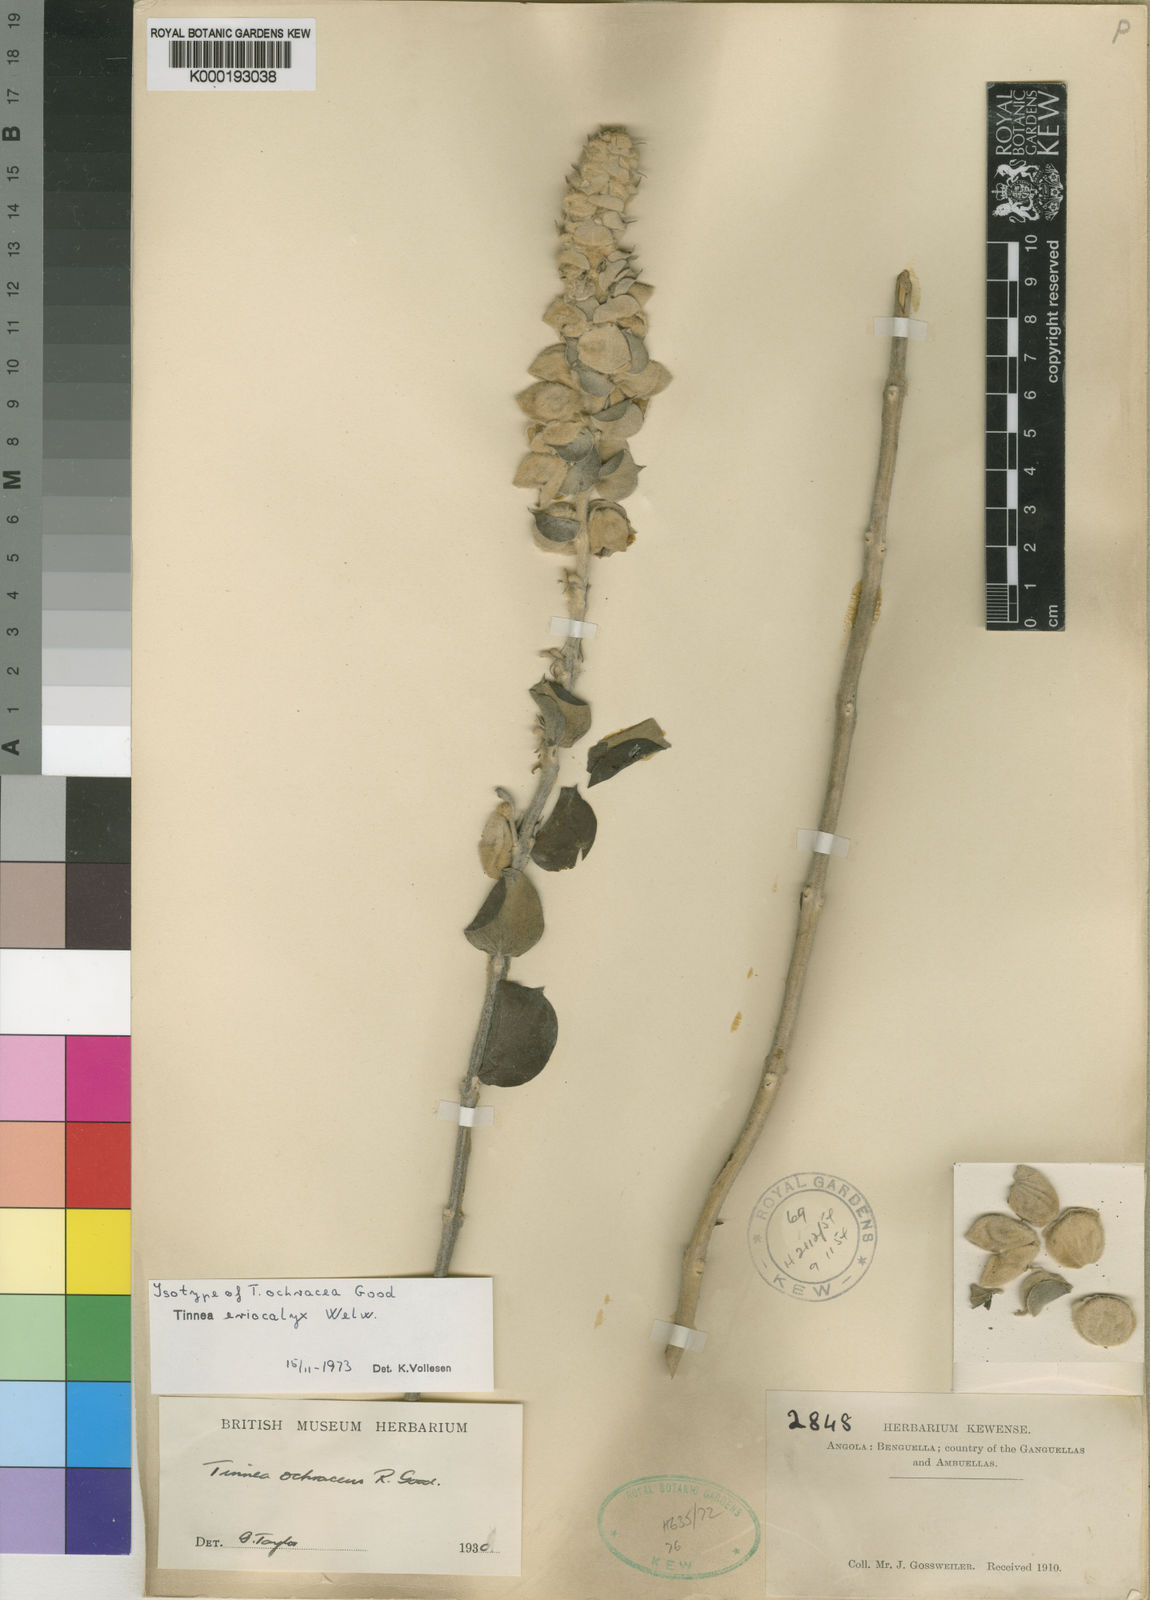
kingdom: Plantae
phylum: Tracheophyta
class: Magnoliopsida
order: Lamiales
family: Lamiaceae
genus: Tinnea
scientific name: Tinnea eriocalyx
